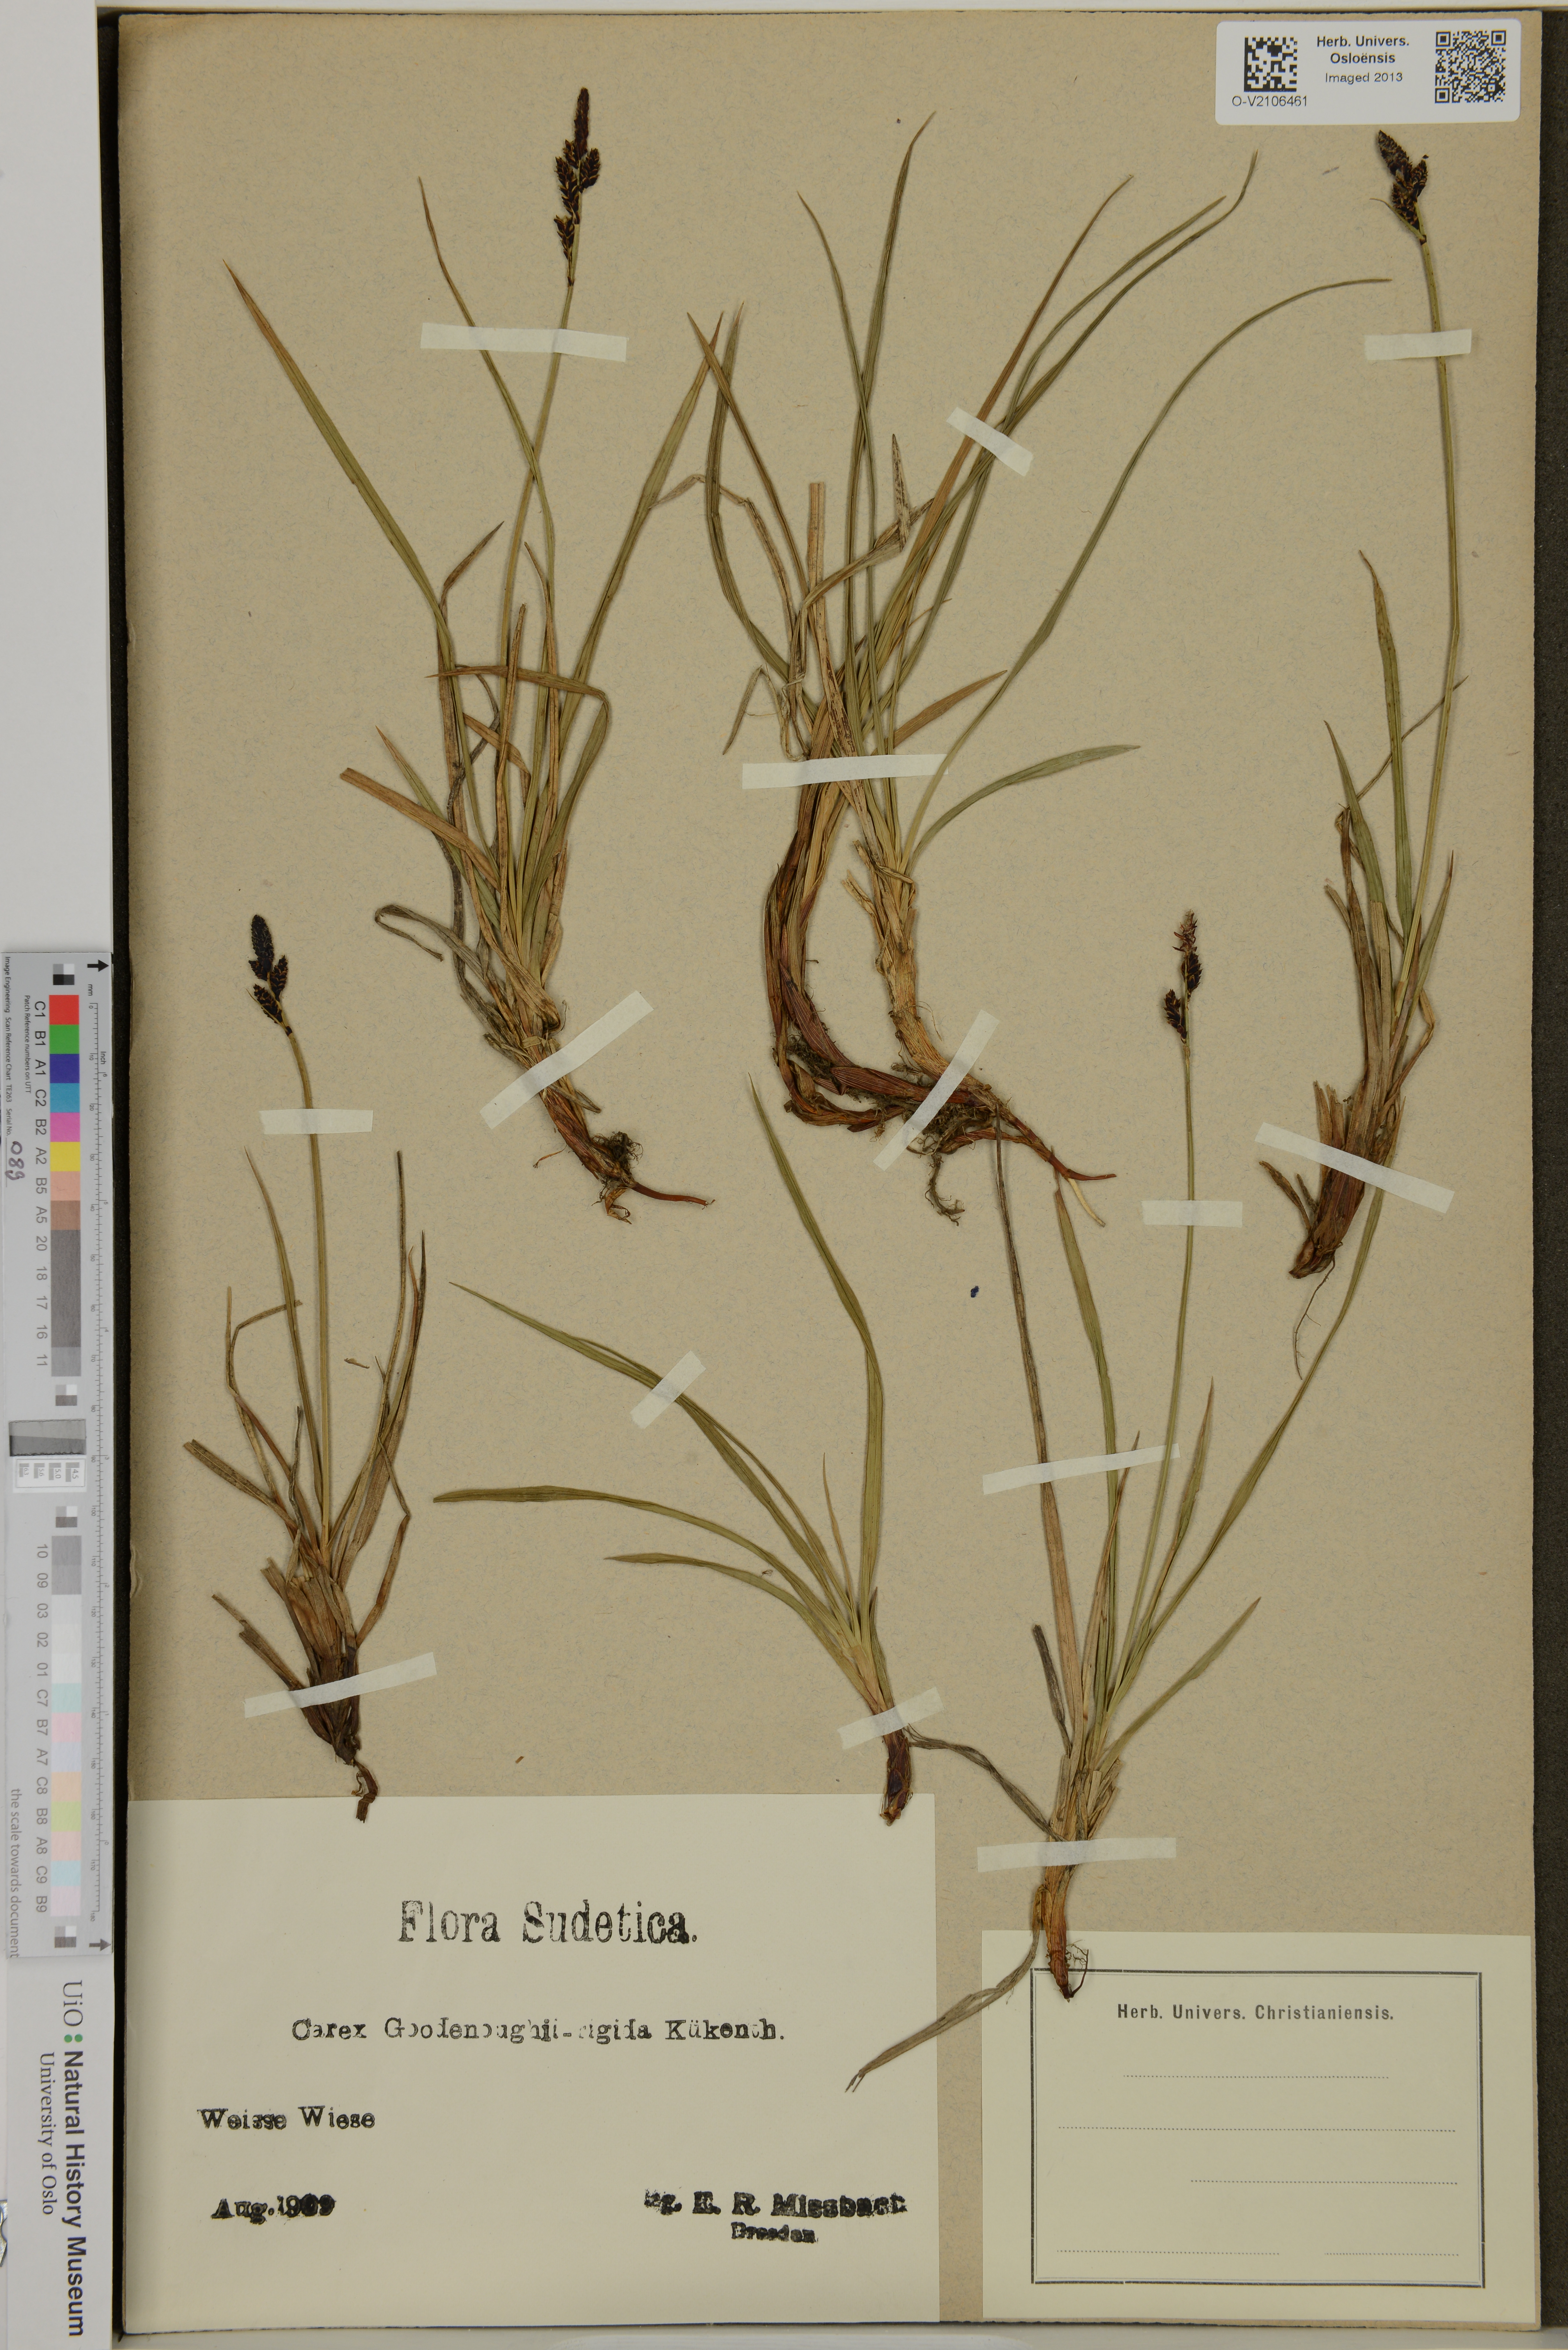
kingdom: Plantae
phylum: Tracheophyta
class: Liliopsida
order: Poales
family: Cyperaceae
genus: Carex
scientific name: Carex
